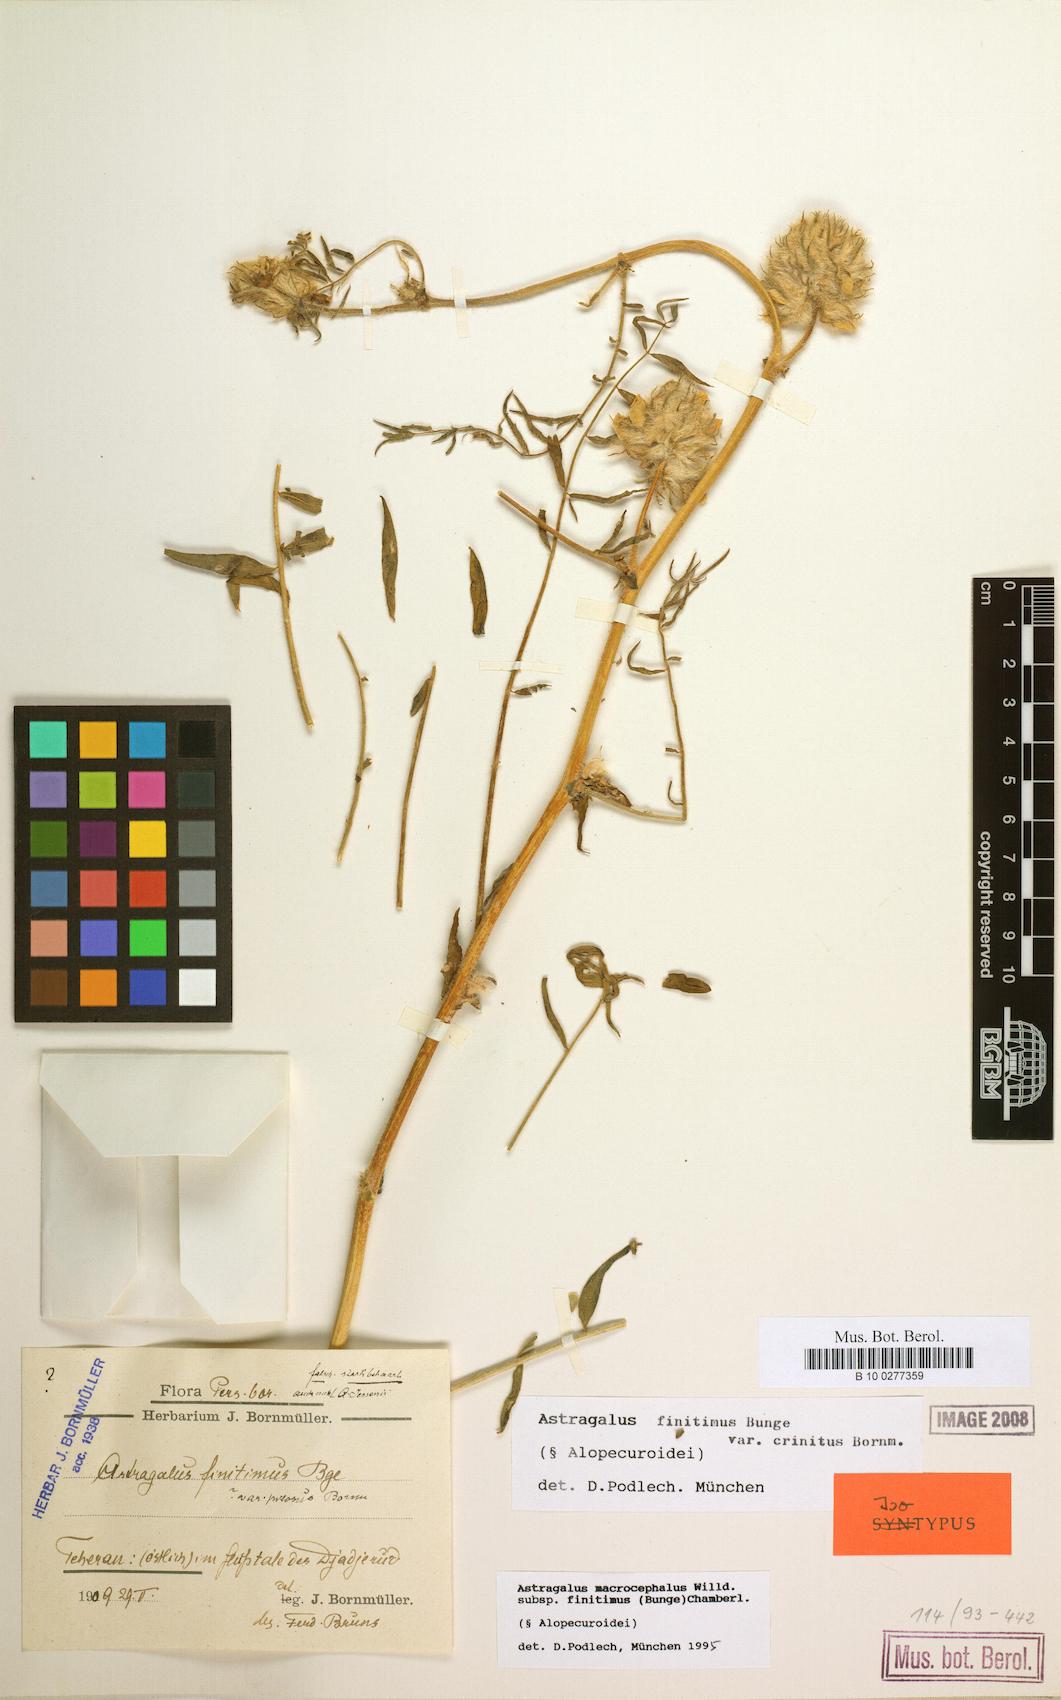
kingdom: Plantae
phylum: Tracheophyta
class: Magnoliopsida
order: Fabales
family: Fabaceae
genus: Astragalus
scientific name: Astragalus macrocephalus
